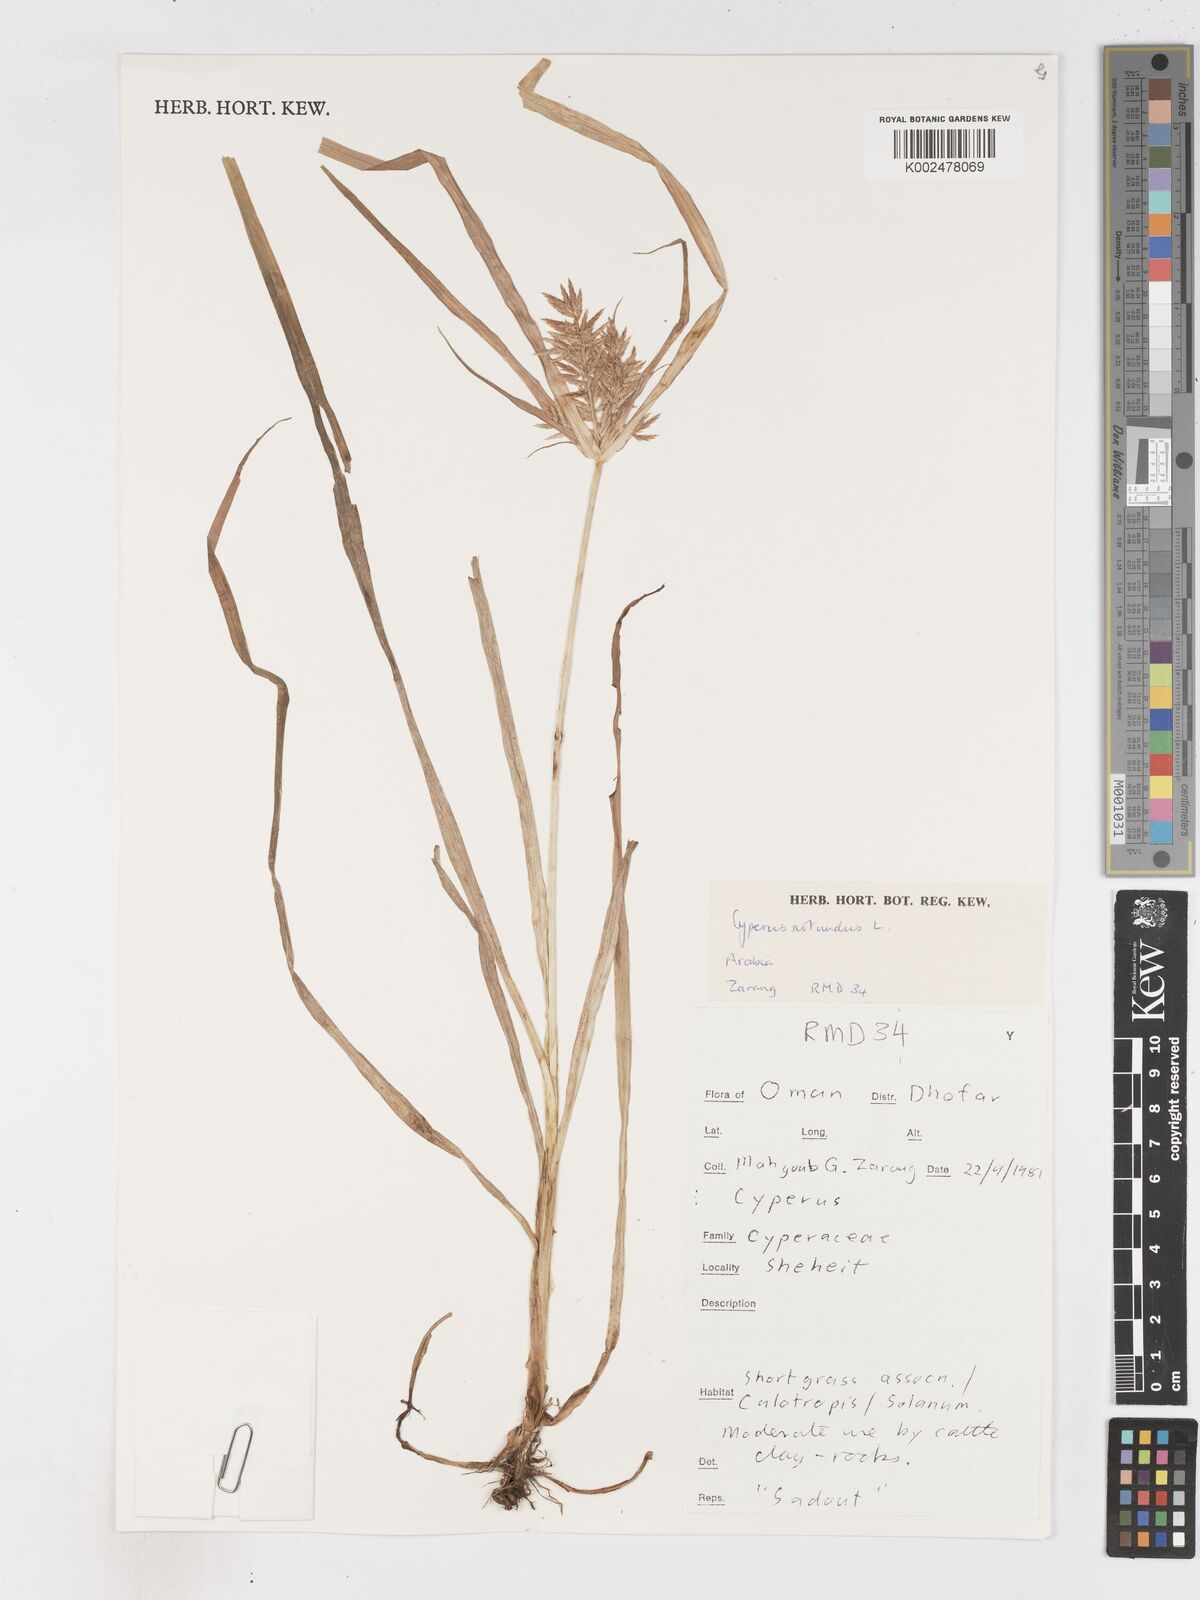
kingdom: Plantae
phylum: Tracheophyta
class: Liliopsida
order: Poales
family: Cyperaceae
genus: Cyperus
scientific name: Cyperus rotundus
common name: Nutgrass
